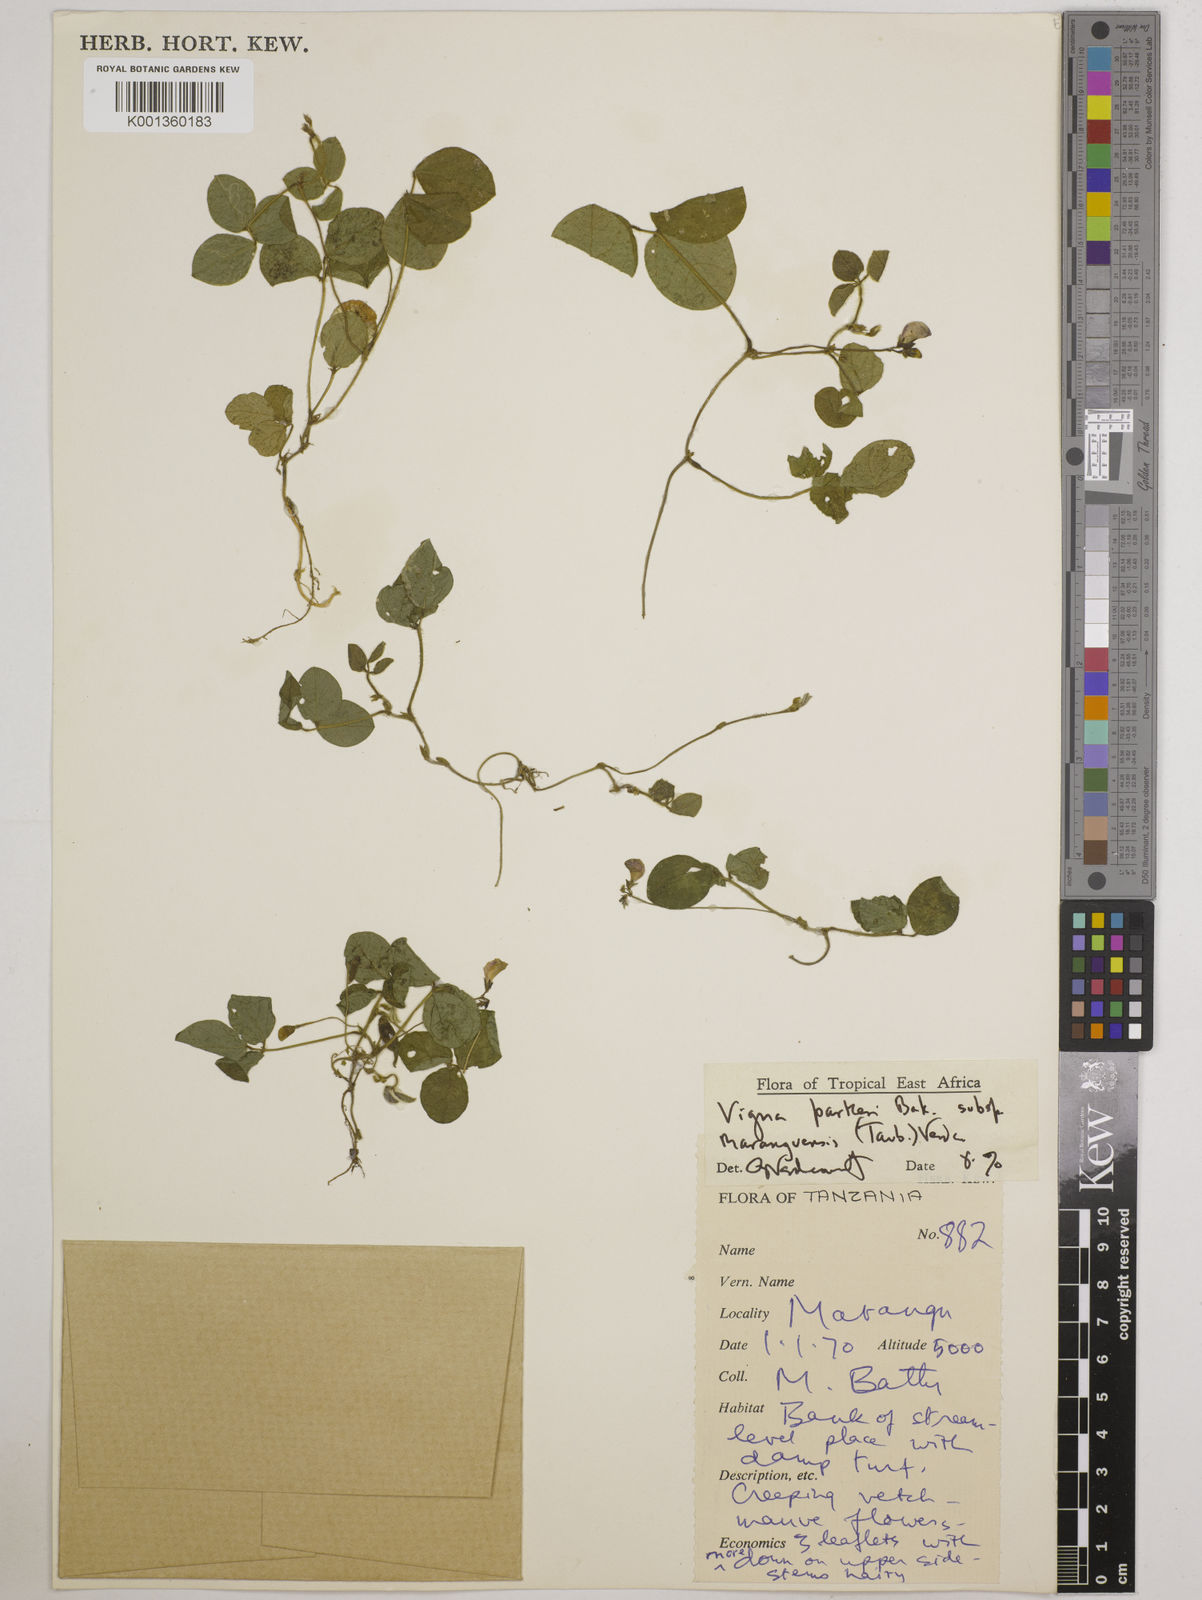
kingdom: Plantae
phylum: Tracheophyta
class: Magnoliopsida
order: Fabales
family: Fabaceae
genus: Vigna
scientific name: Vigna
